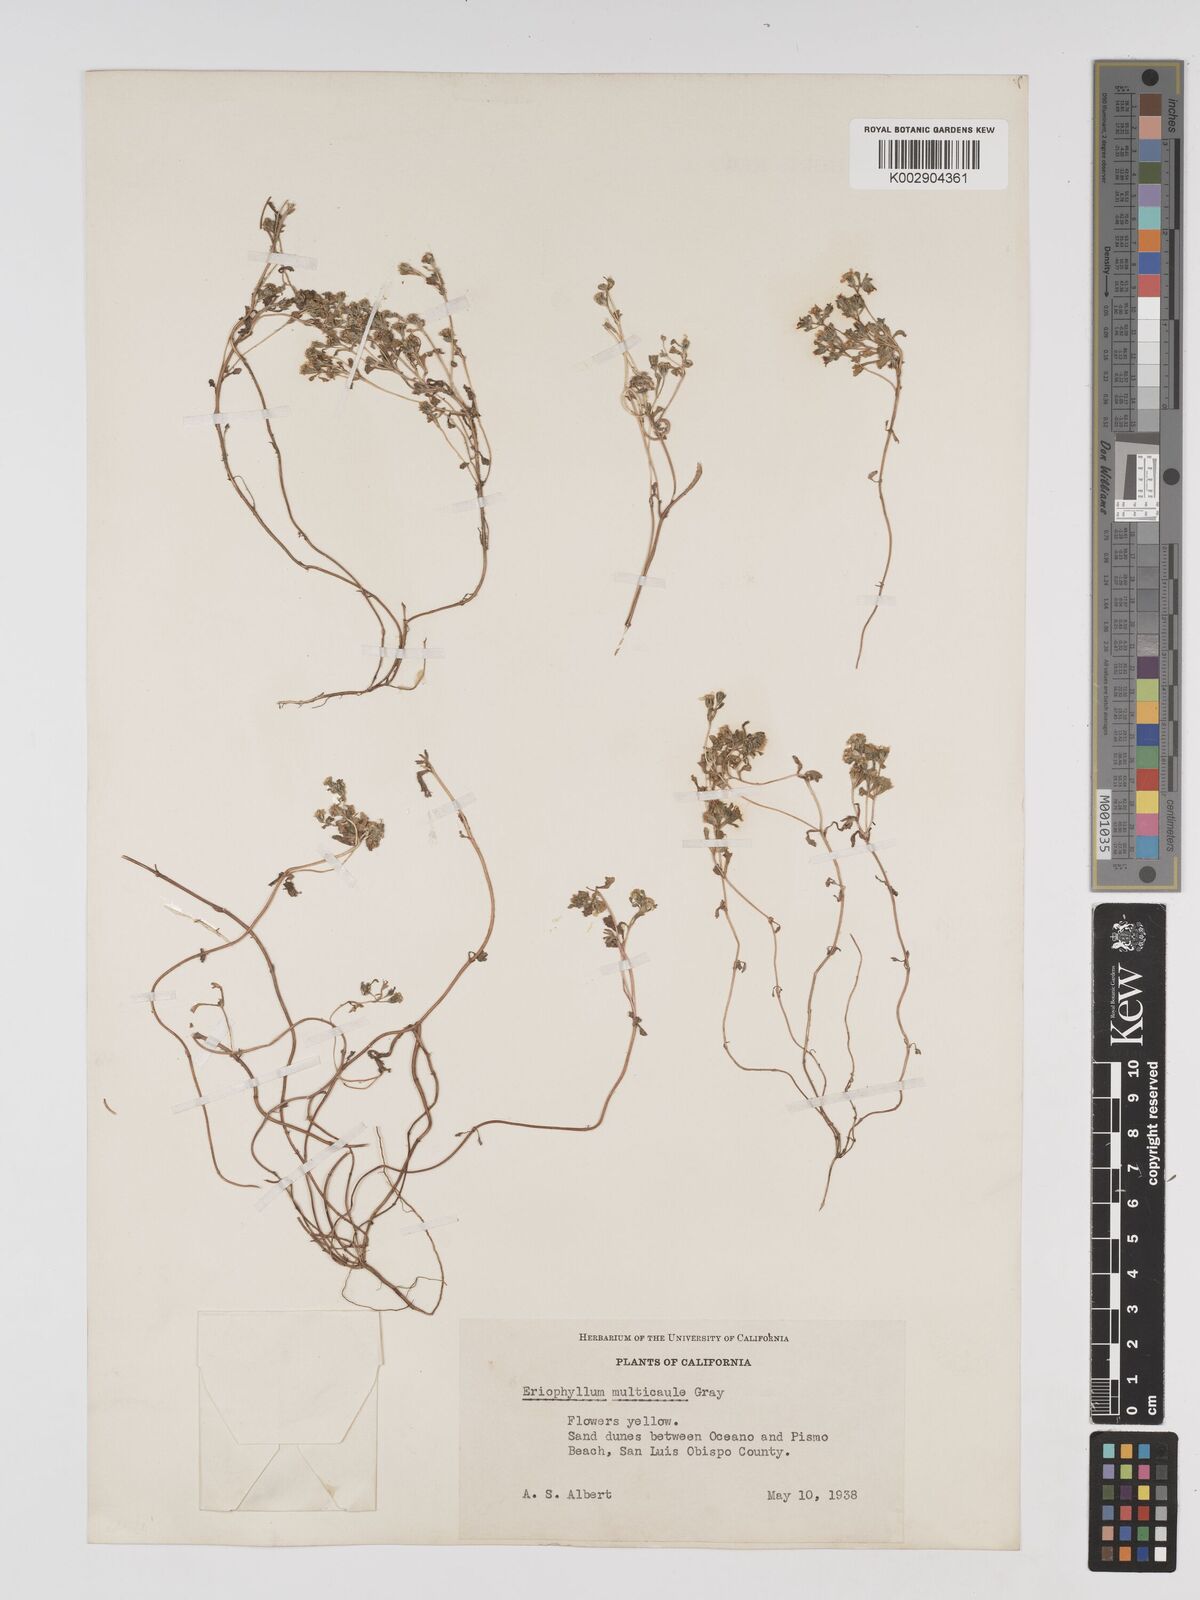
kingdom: Plantae
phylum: Tracheophyta
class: Magnoliopsida
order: Asterales
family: Asteraceae
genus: Eriophyllum
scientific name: Eriophyllum multicaule
